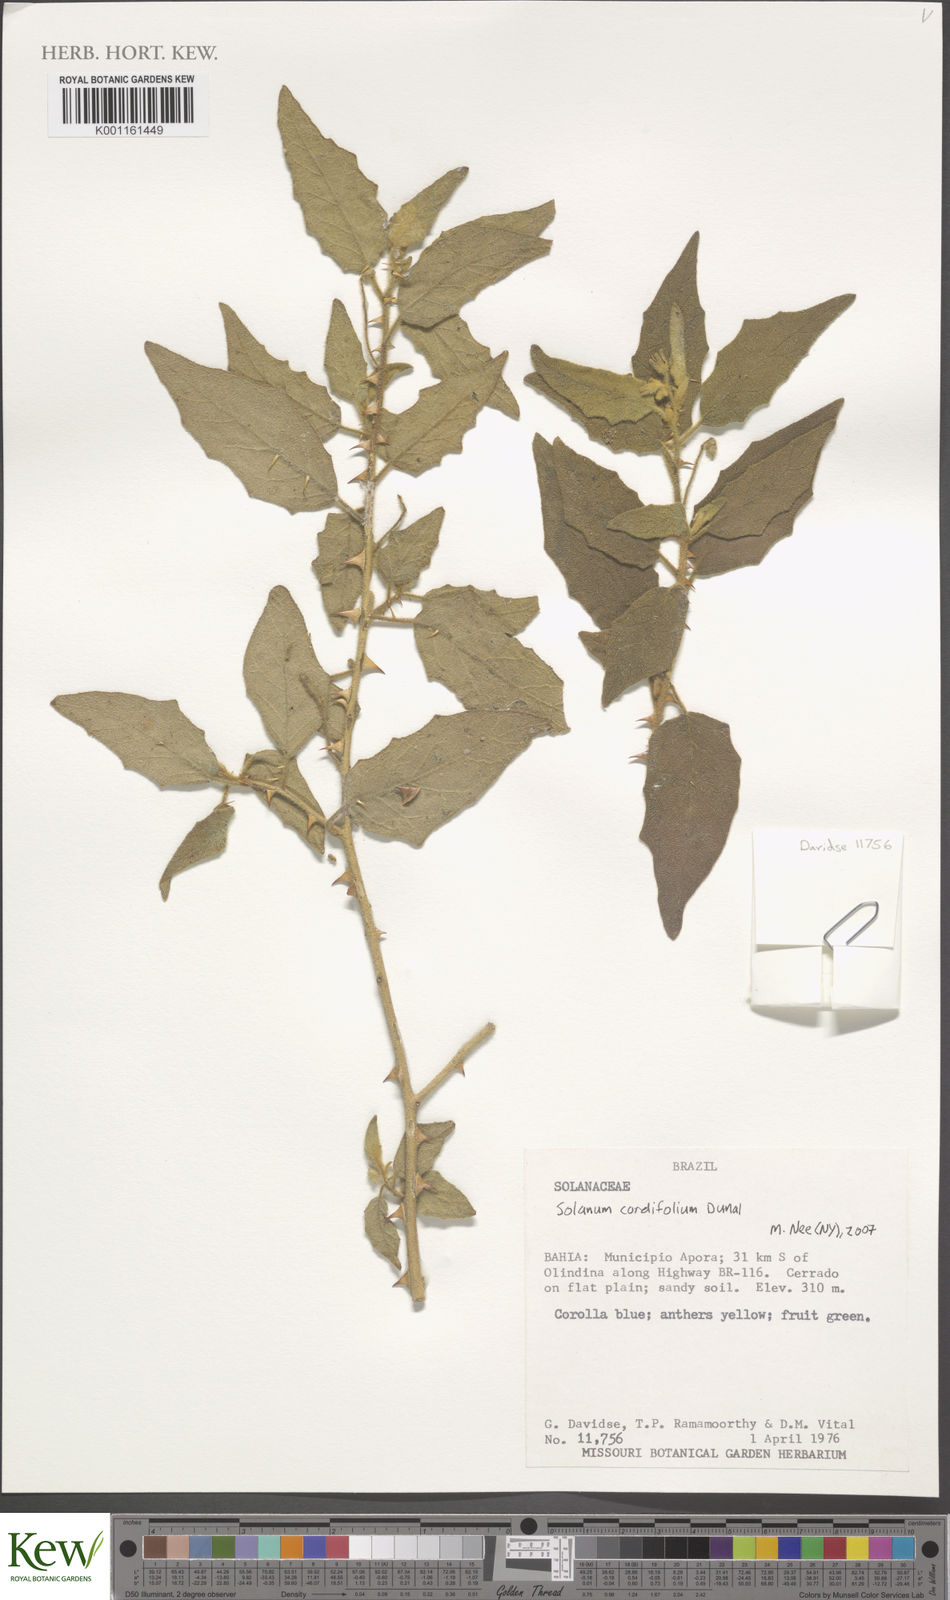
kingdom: Plantae
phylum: Tracheophyta
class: Magnoliopsida
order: Solanales
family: Solanaceae
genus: Solanum
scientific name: Solanum cordifolium
